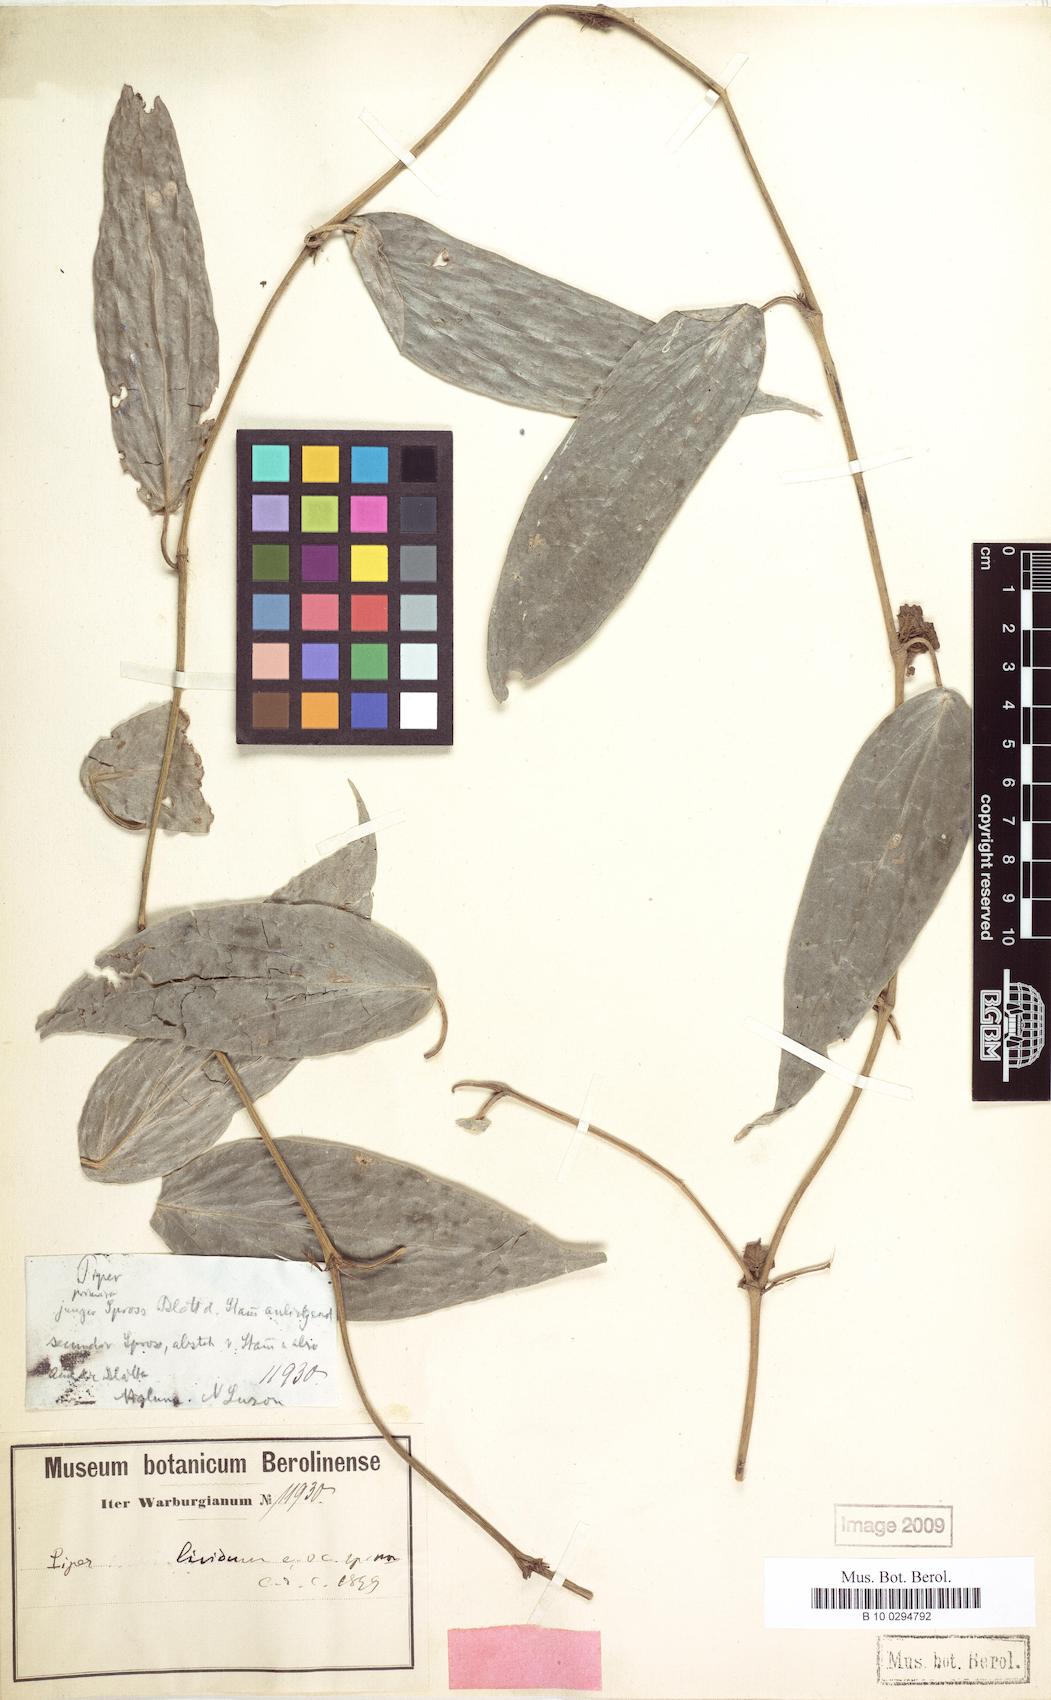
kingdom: Plantae
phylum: Tracheophyta
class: Magnoliopsida
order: Piperales
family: Piperaceae
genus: Piper
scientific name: Piper philippinum
